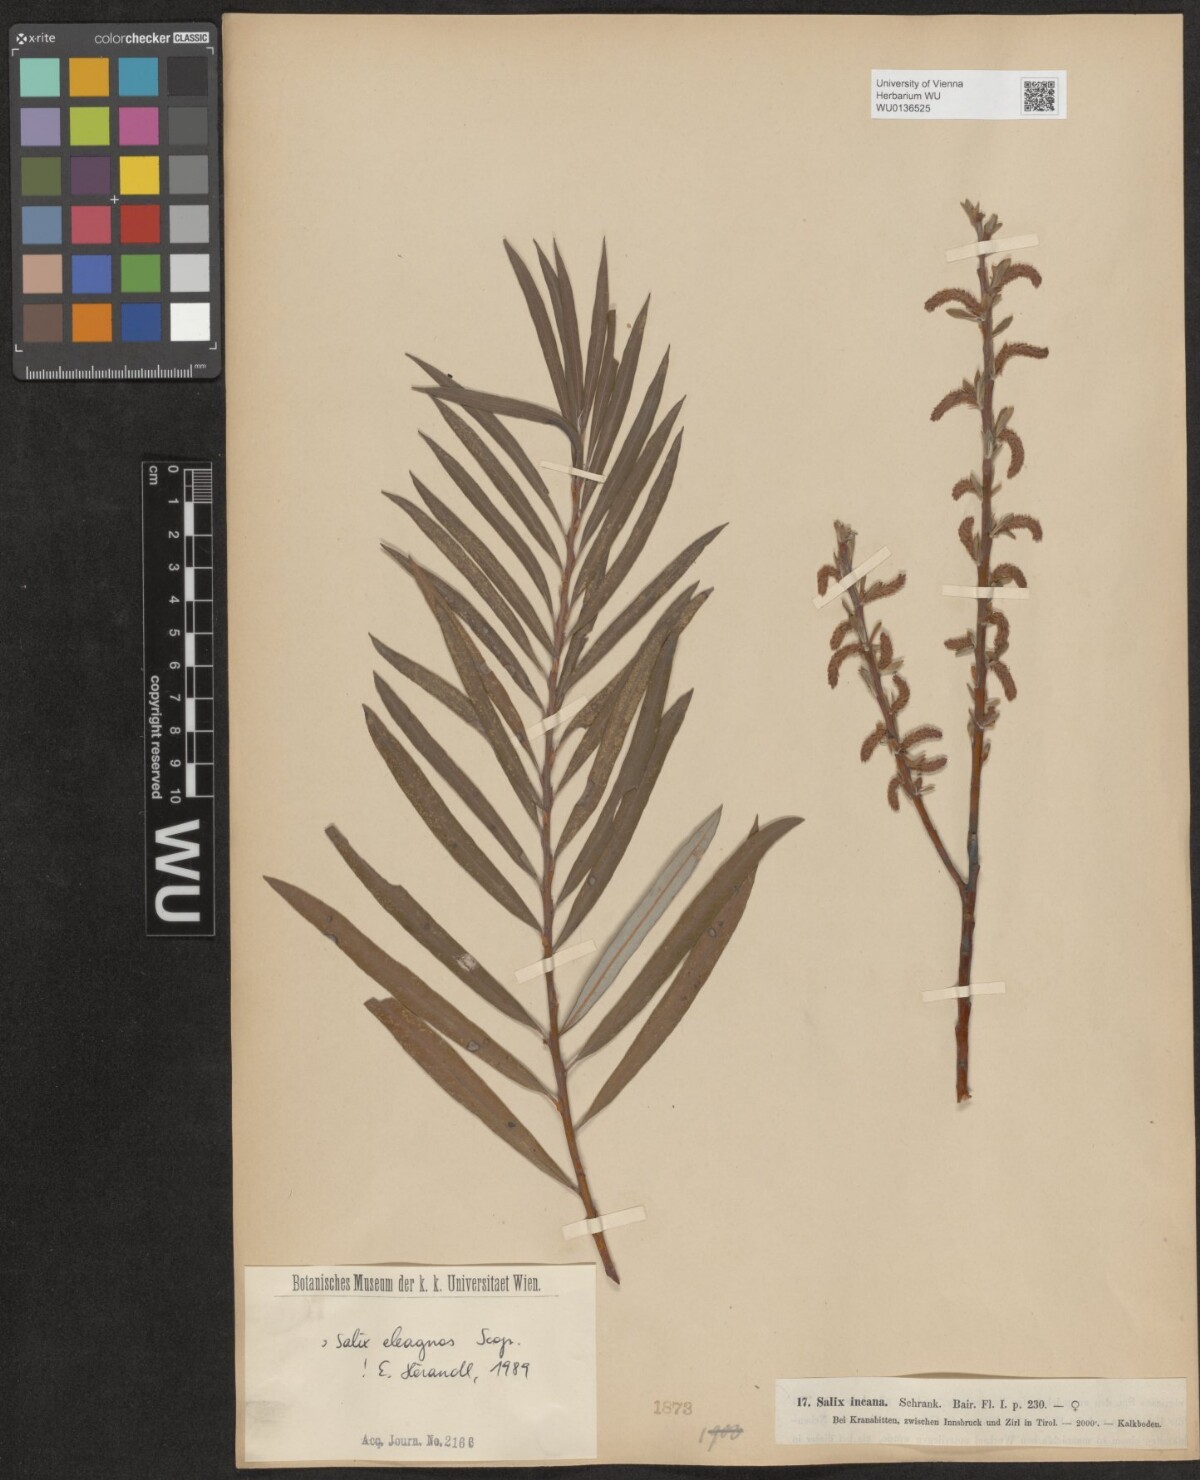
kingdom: Plantae
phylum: Tracheophyta
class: Magnoliopsida
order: Malpighiales
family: Salicaceae
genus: Salix
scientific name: Salix eleagnos
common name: Elaeagnus willow
